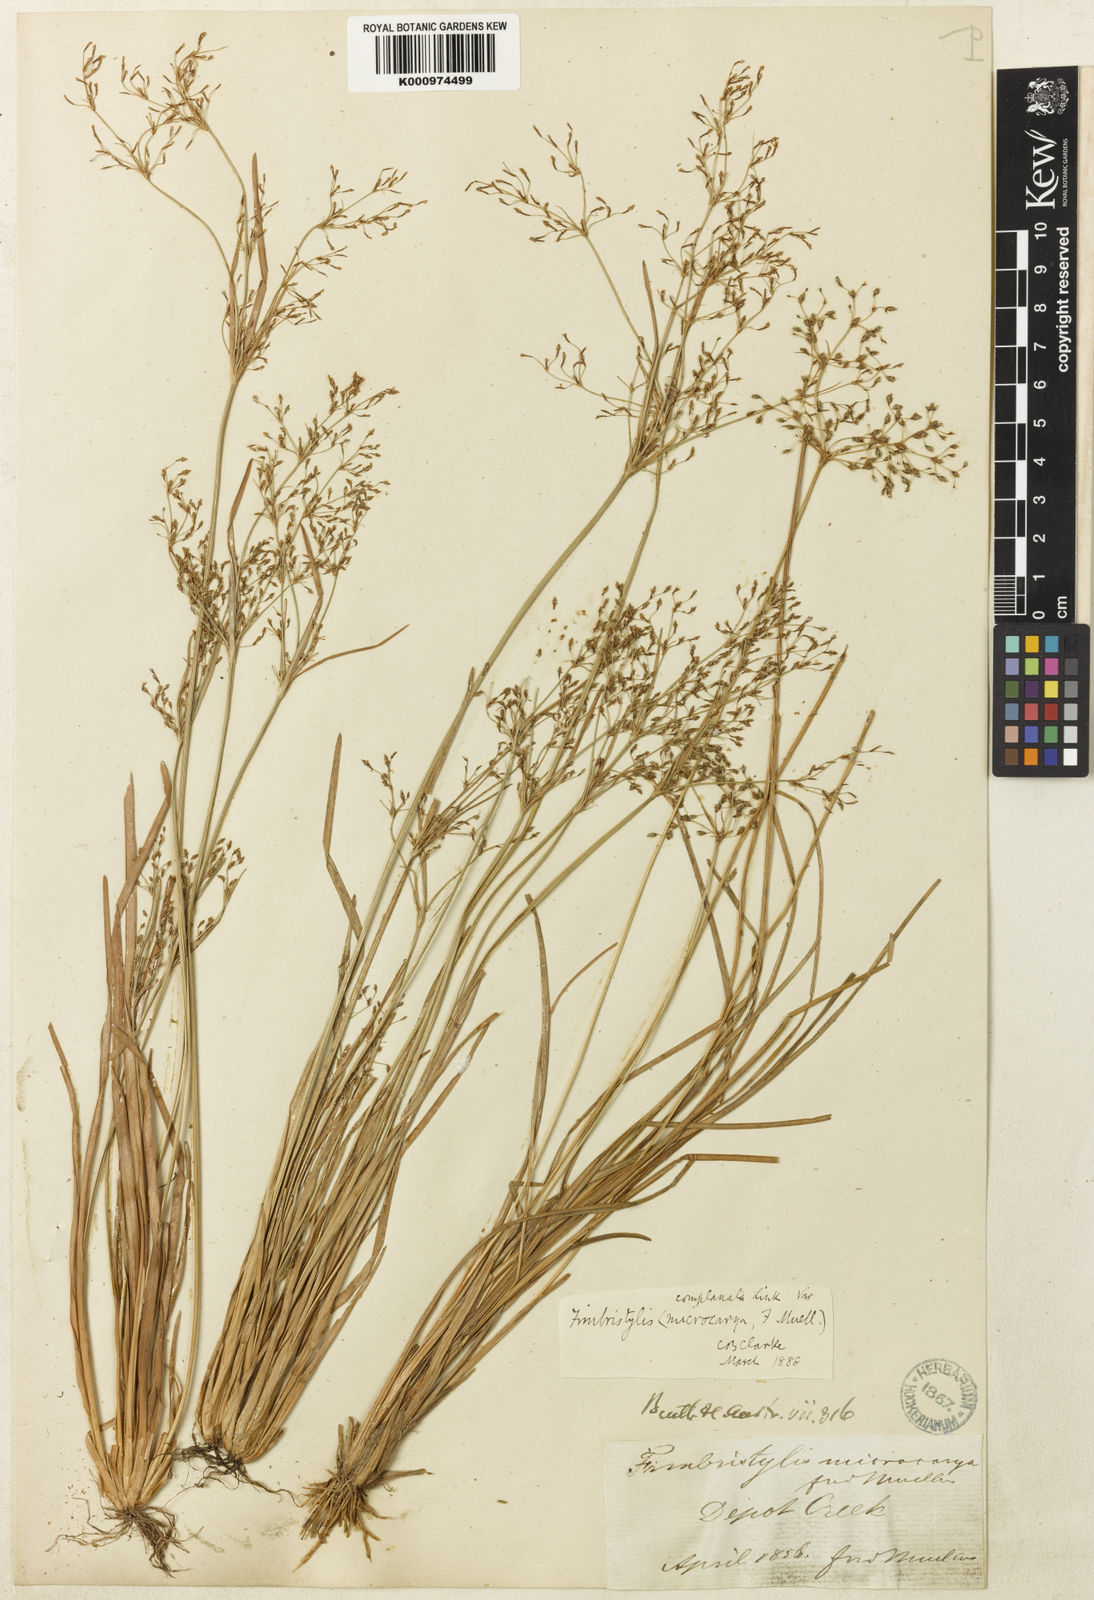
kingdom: Plantae
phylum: Tracheophyta
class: Liliopsida
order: Poales
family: Cyperaceae
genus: Fimbristylis
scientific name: Fimbristylis complanata
